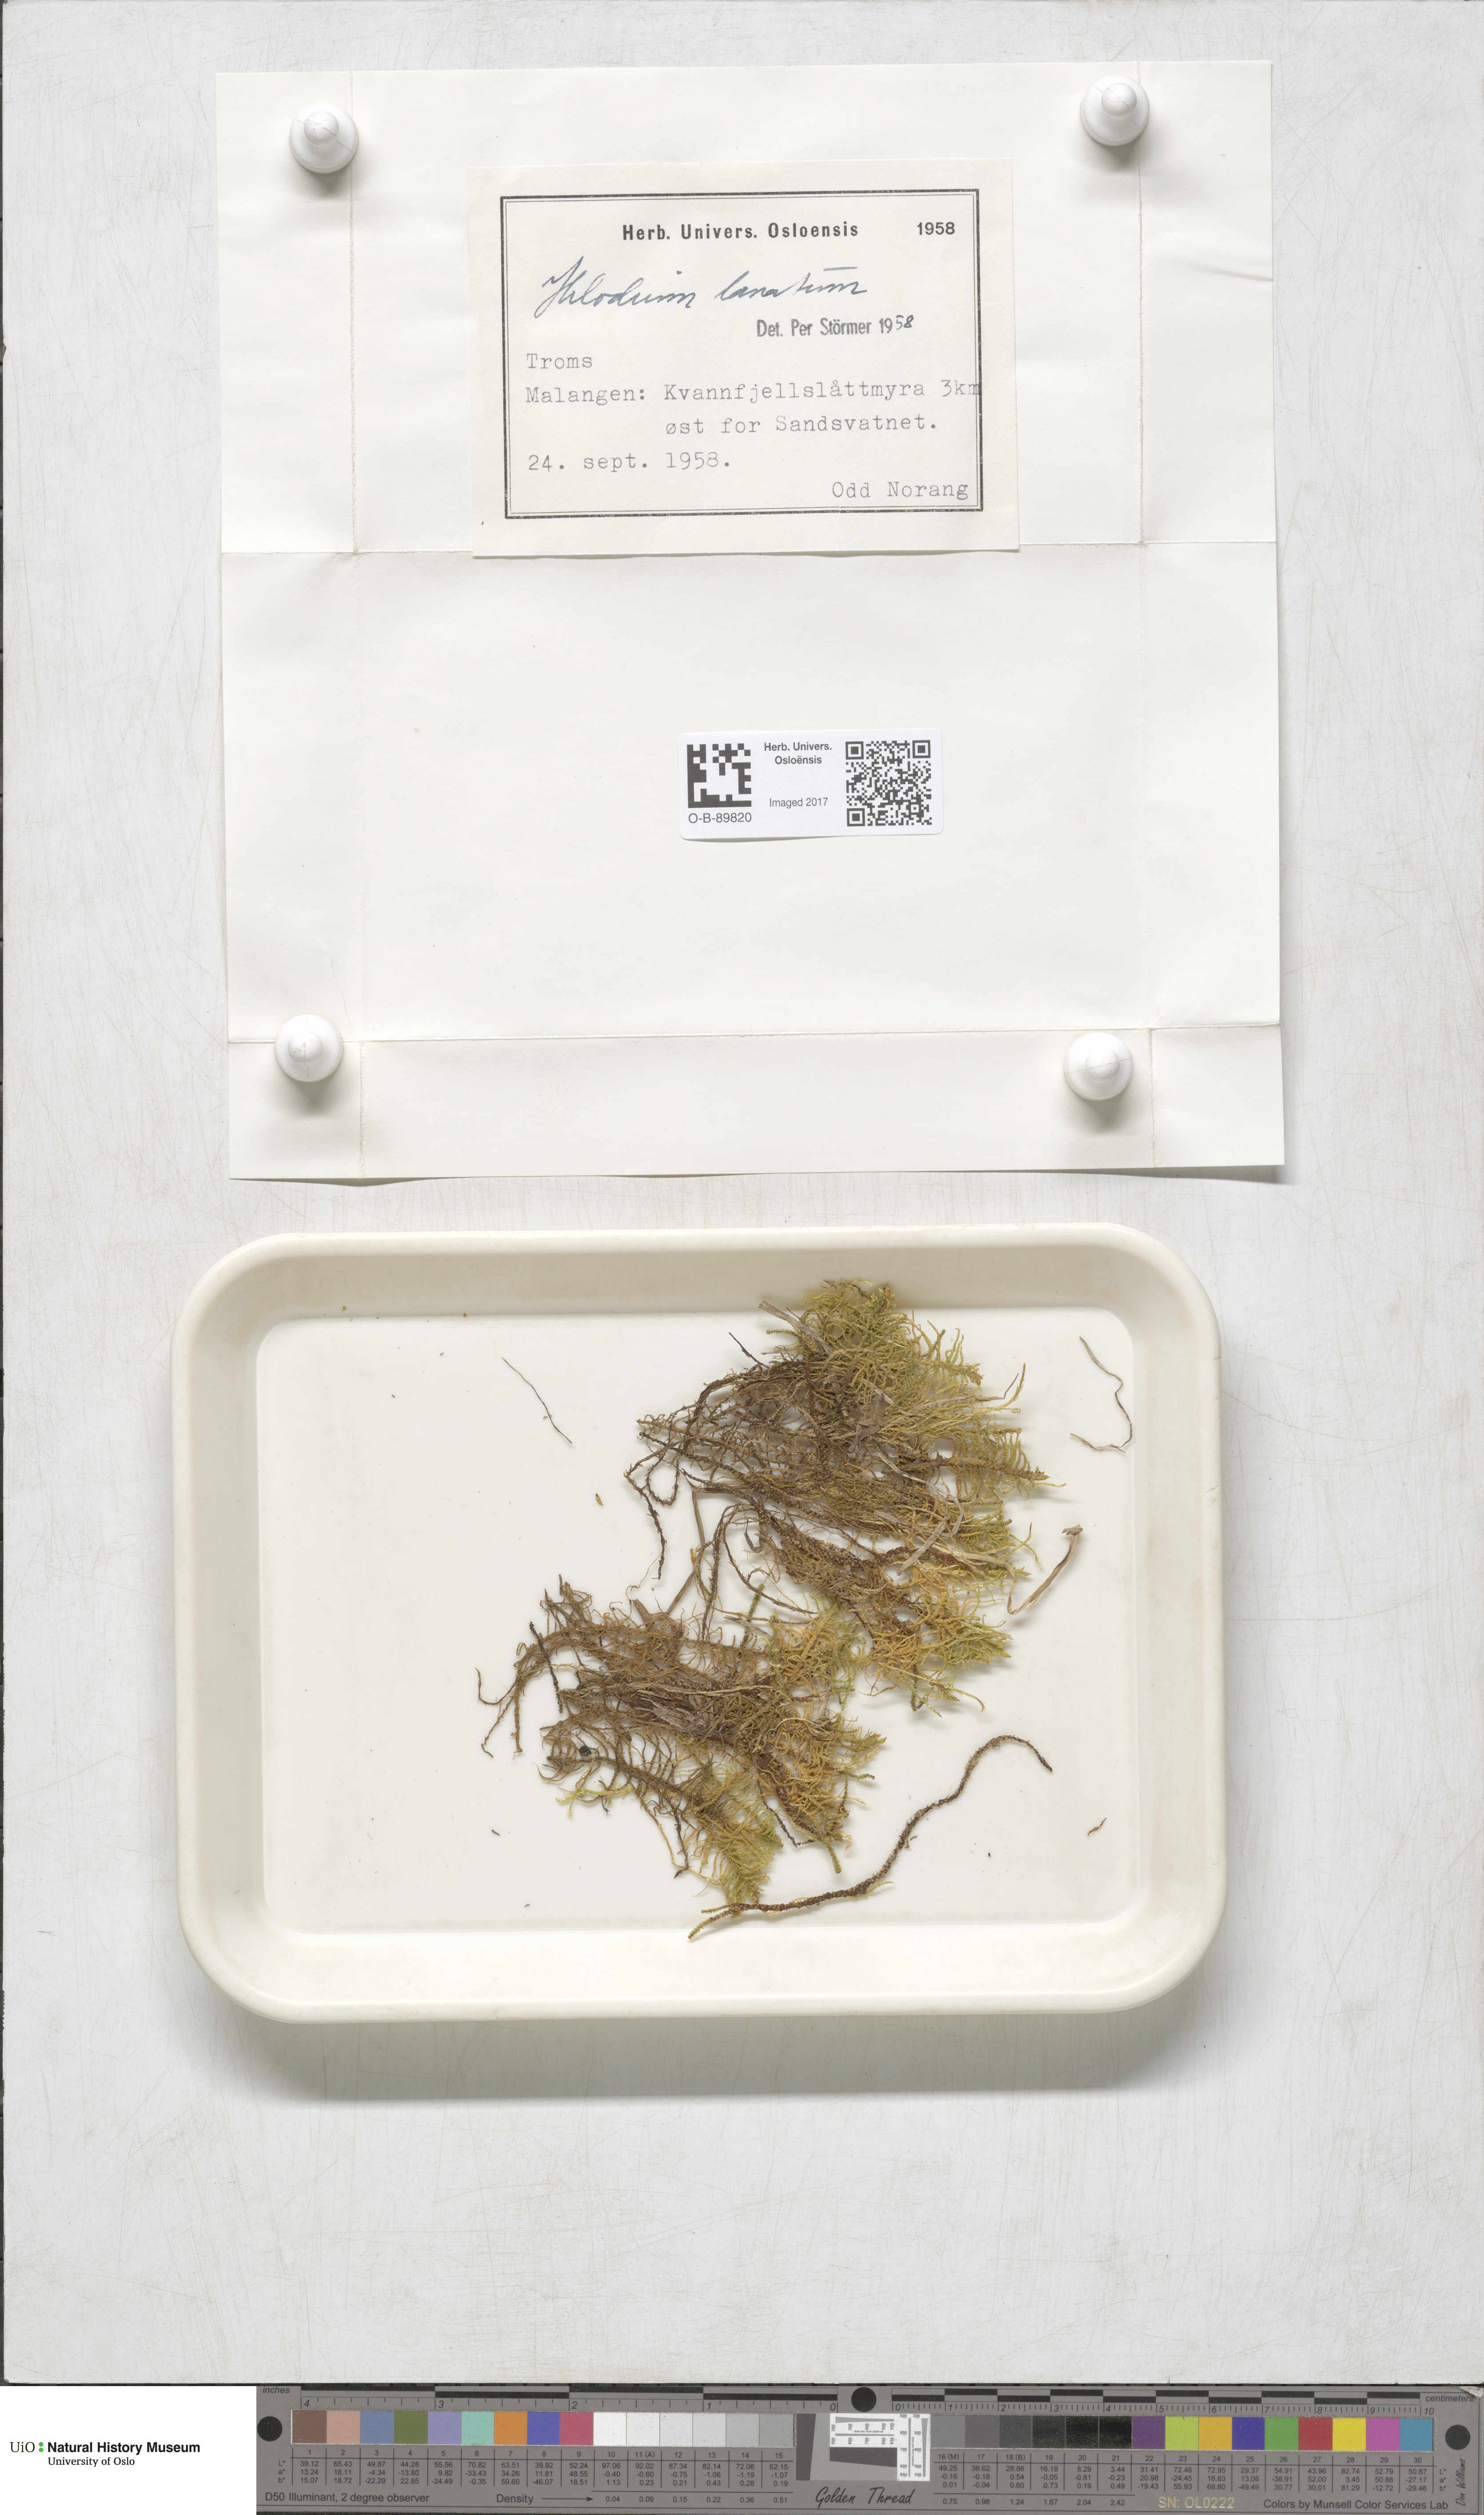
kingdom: Plantae
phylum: Bryophyta
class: Bryopsida
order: Hypnales
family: Helodiaceae
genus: Helodium
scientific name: Helodium blandowii
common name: Blandow's tamarisk-moss
